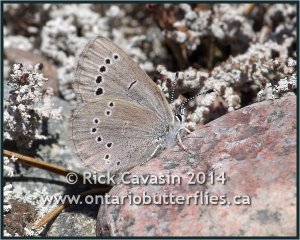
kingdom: Animalia
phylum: Arthropoda
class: Insecta
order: Lepidoptera
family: Lycaenidae
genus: Glaucopsyche
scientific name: Glaucopsyche lygdamus
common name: Silvery Blue
